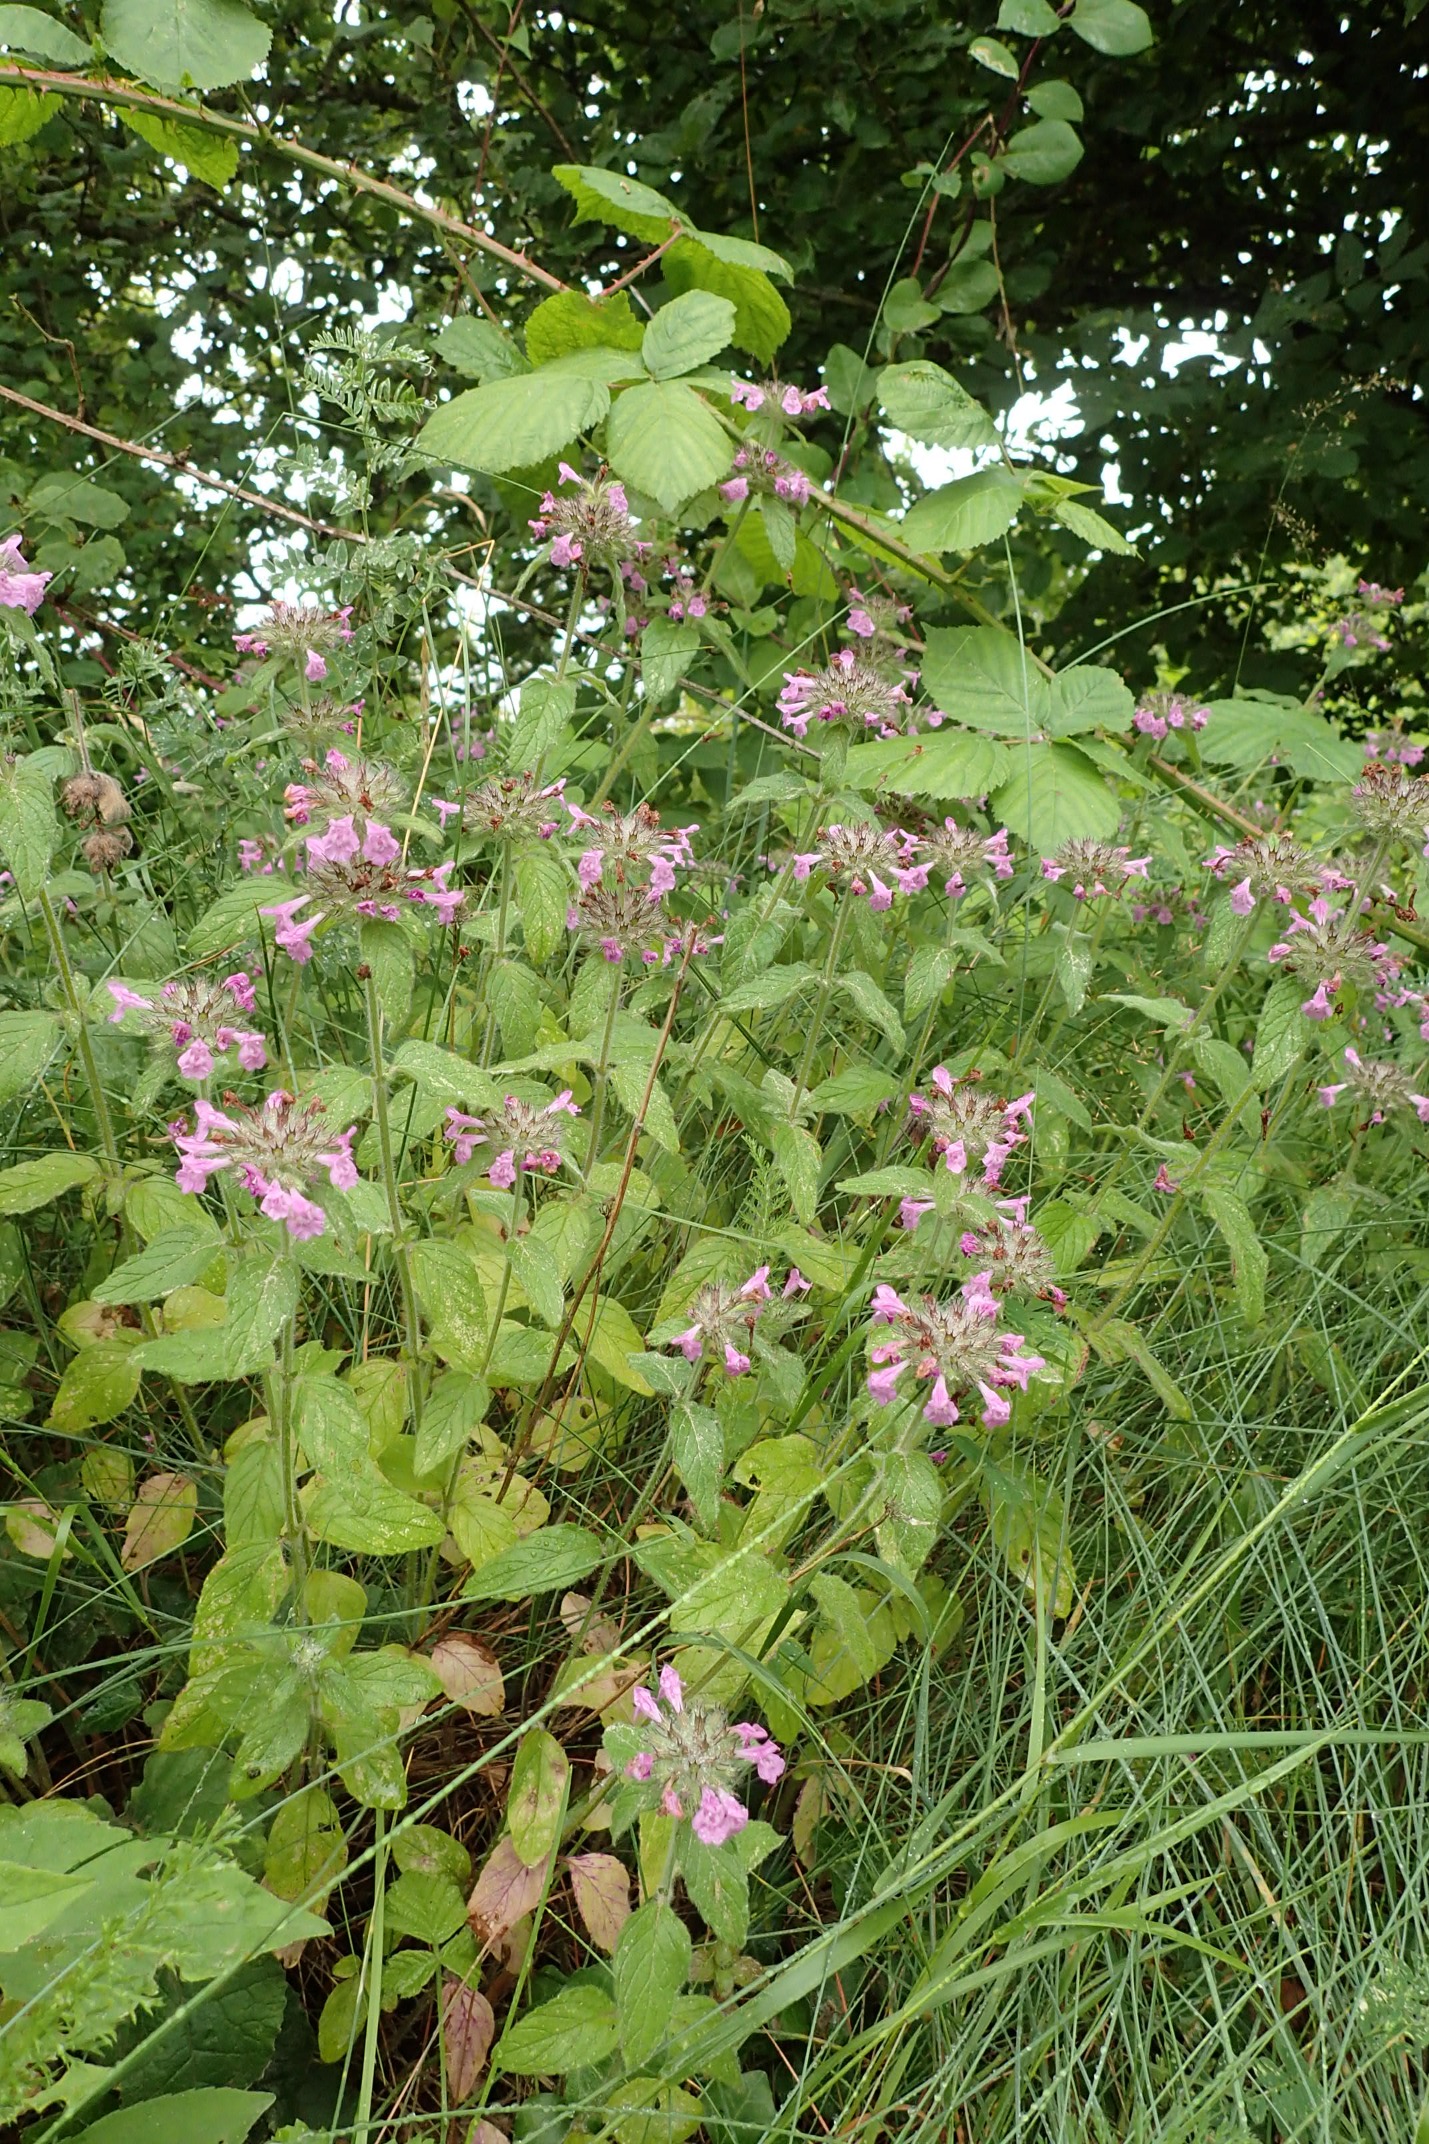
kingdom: Plantae
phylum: Tracheophyta
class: Magnoliopsida
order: Lamiales
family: Lamiaceae
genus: Clinopodium
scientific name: Clinopodium vulgare
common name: Kransbørste
